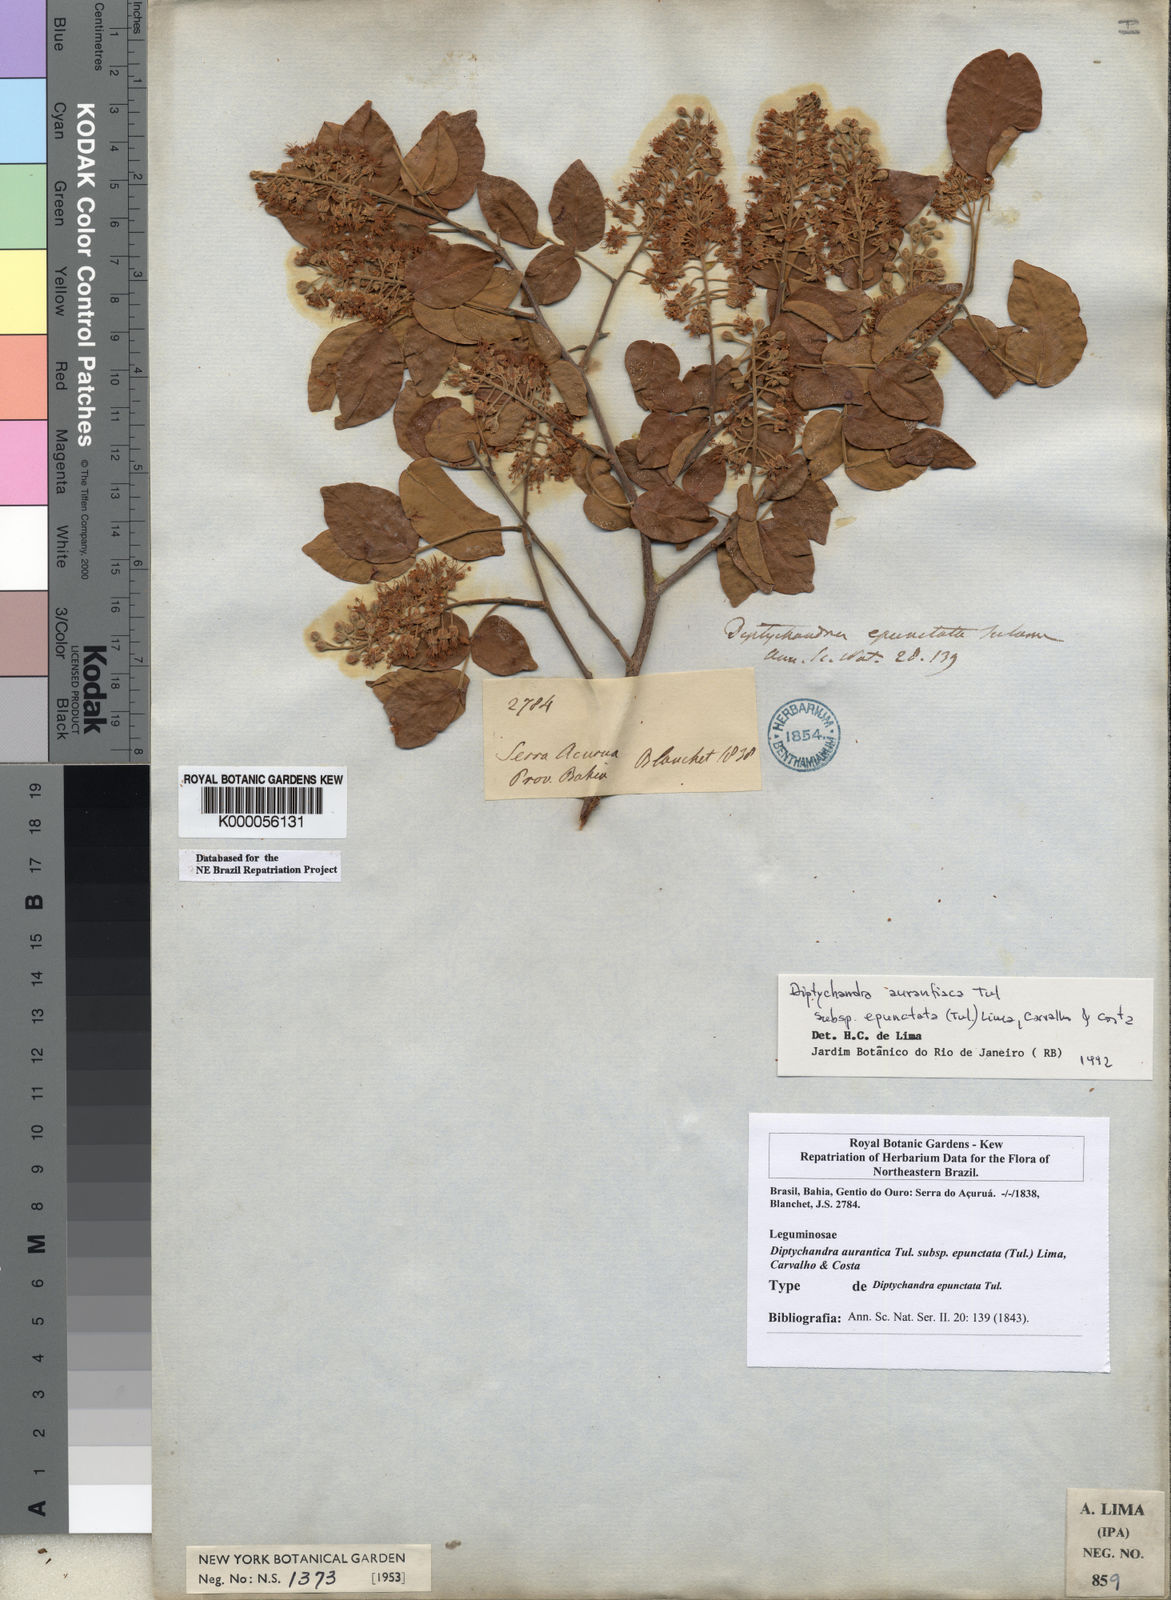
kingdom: Plantae
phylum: Tracheophyta
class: Magnoliopsida
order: Fabales
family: Fabaceae
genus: Diptychandra
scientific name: Diptychandra
